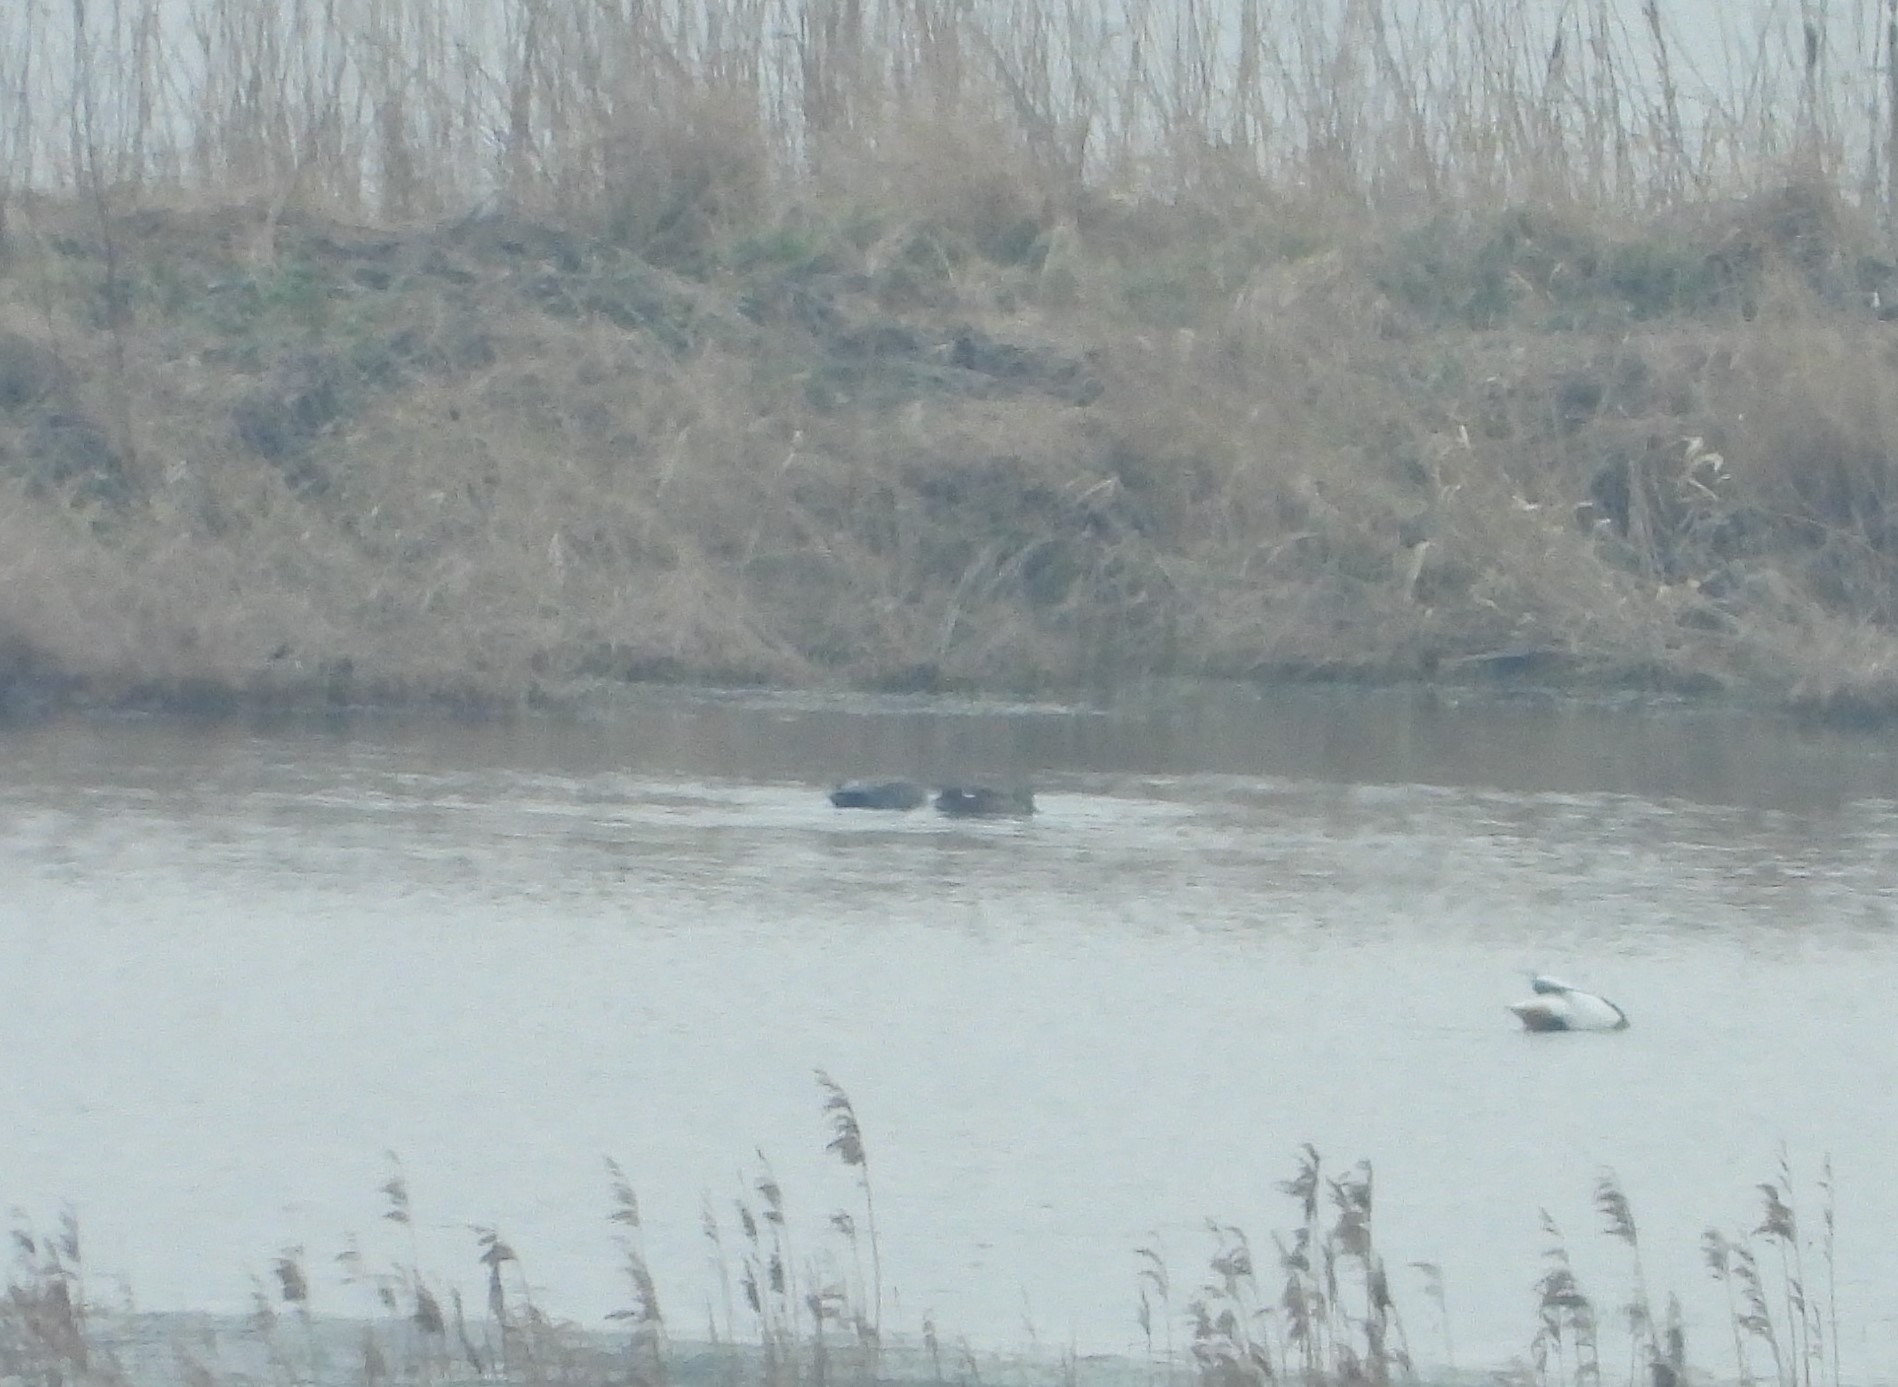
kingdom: Animalia
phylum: Chordata
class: Aves
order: Anseriformes
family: Anatidae
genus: Mareca
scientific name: Mareca strepera
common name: Knarand
